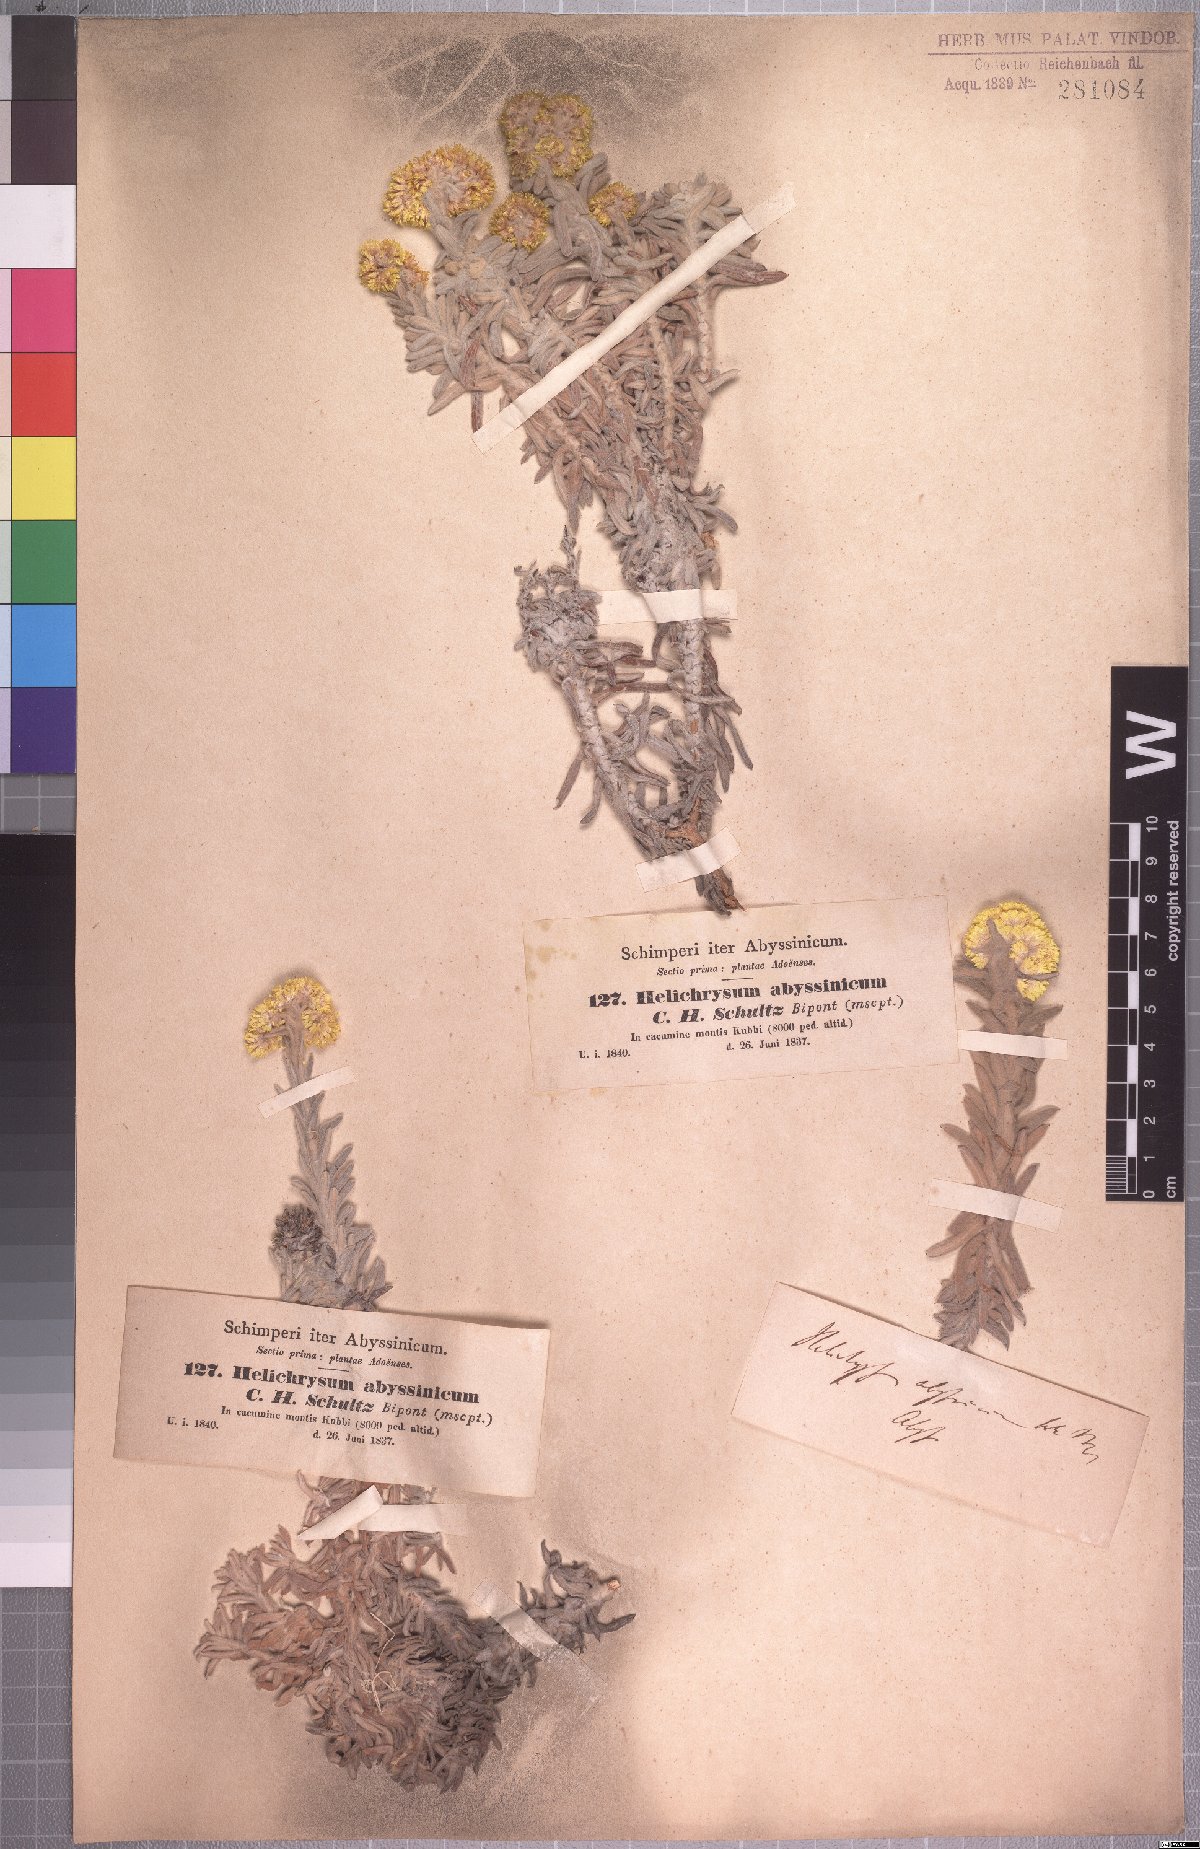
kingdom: Plantae
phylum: Tracheophyta
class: Magnoliopsida
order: Asterales
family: Asteraceae
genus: Helichrysum
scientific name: Helichrysum splendidum
